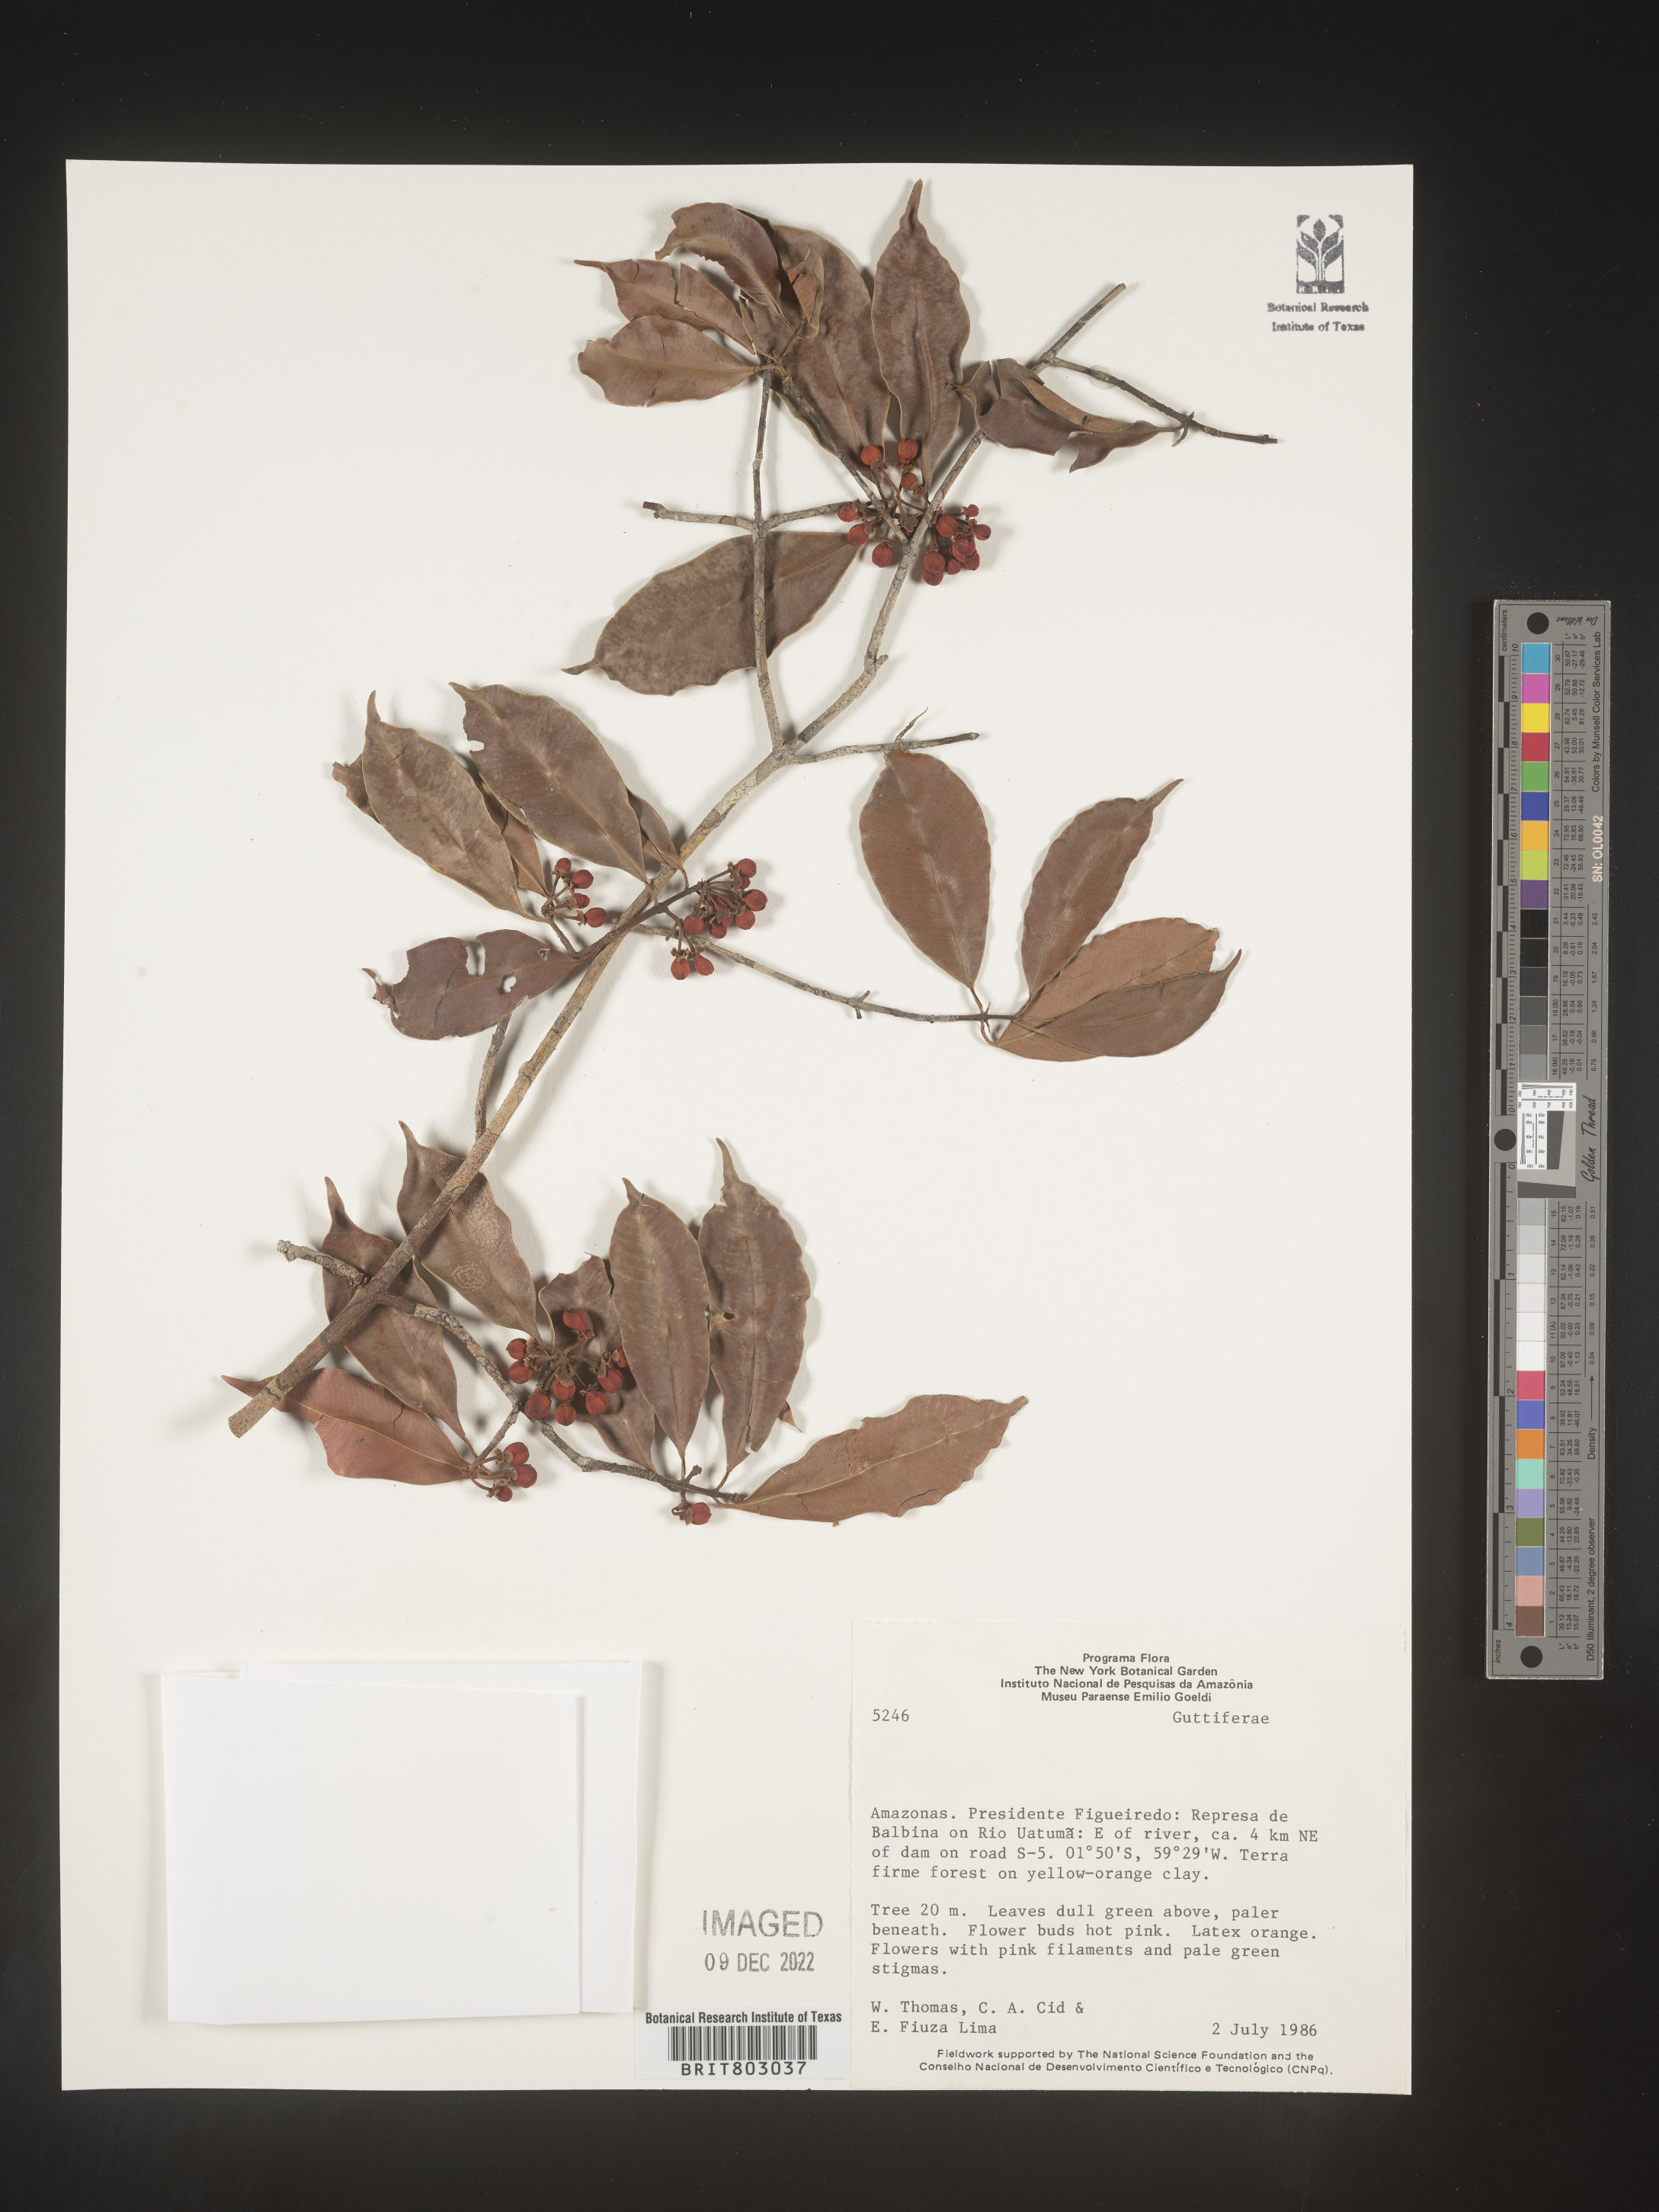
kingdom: Plantae
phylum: Tracheophyta
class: Magnoliopsida
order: Malpighiales
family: Clusiaceae
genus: Symphonia
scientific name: Symphonia
